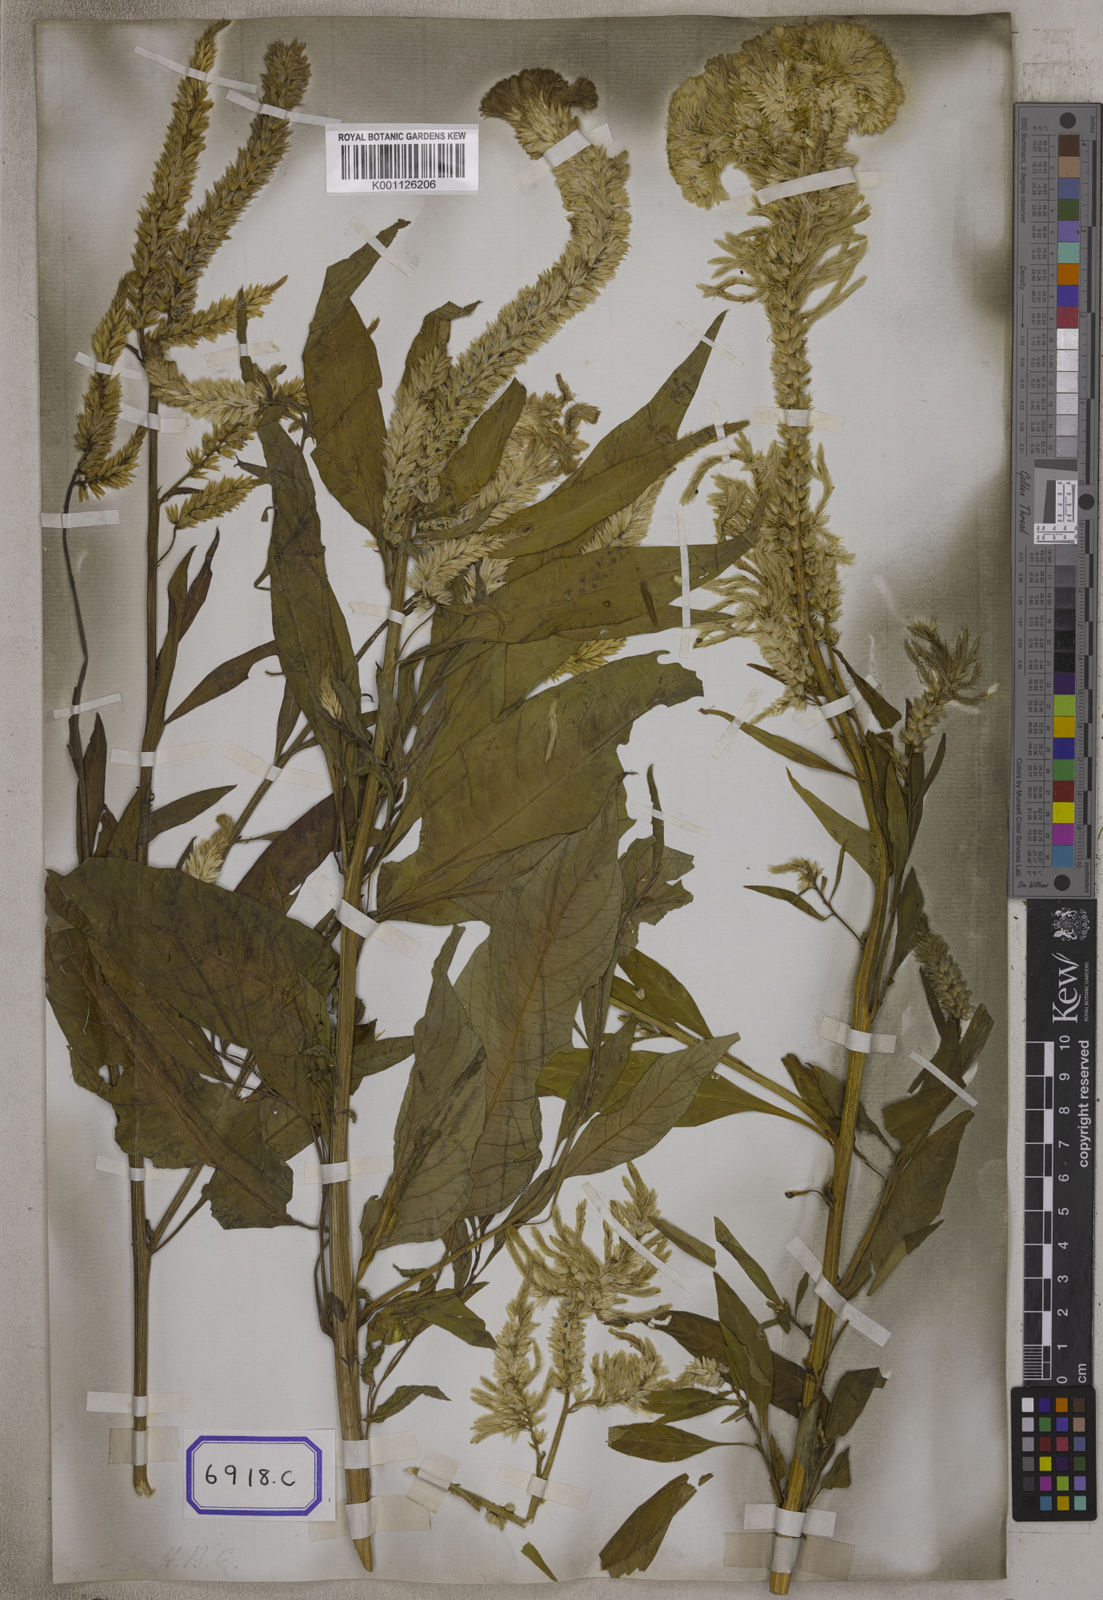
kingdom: Plantae
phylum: Tracheophyta
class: Magnoliopsida
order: Caryophyllales
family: Amaranthaceae
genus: Celosia
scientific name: Celosia argentea
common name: Feather cockscomb
